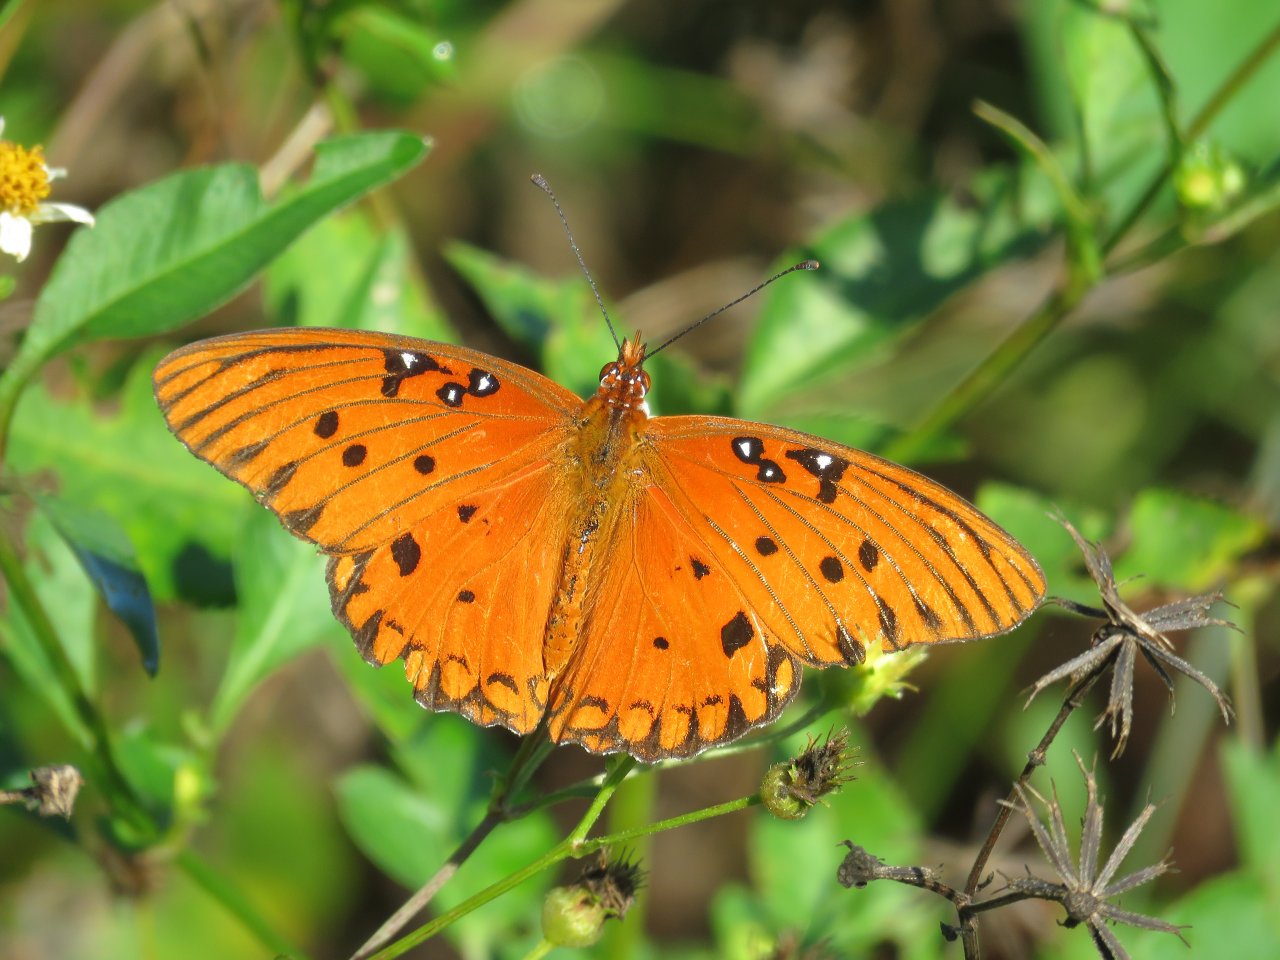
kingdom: Animalia
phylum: Arthropoda
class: Insecta
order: Lepidoptera
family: Nymphalidae
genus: Dione
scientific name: Dione vanillae
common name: Gulf Fritillary
